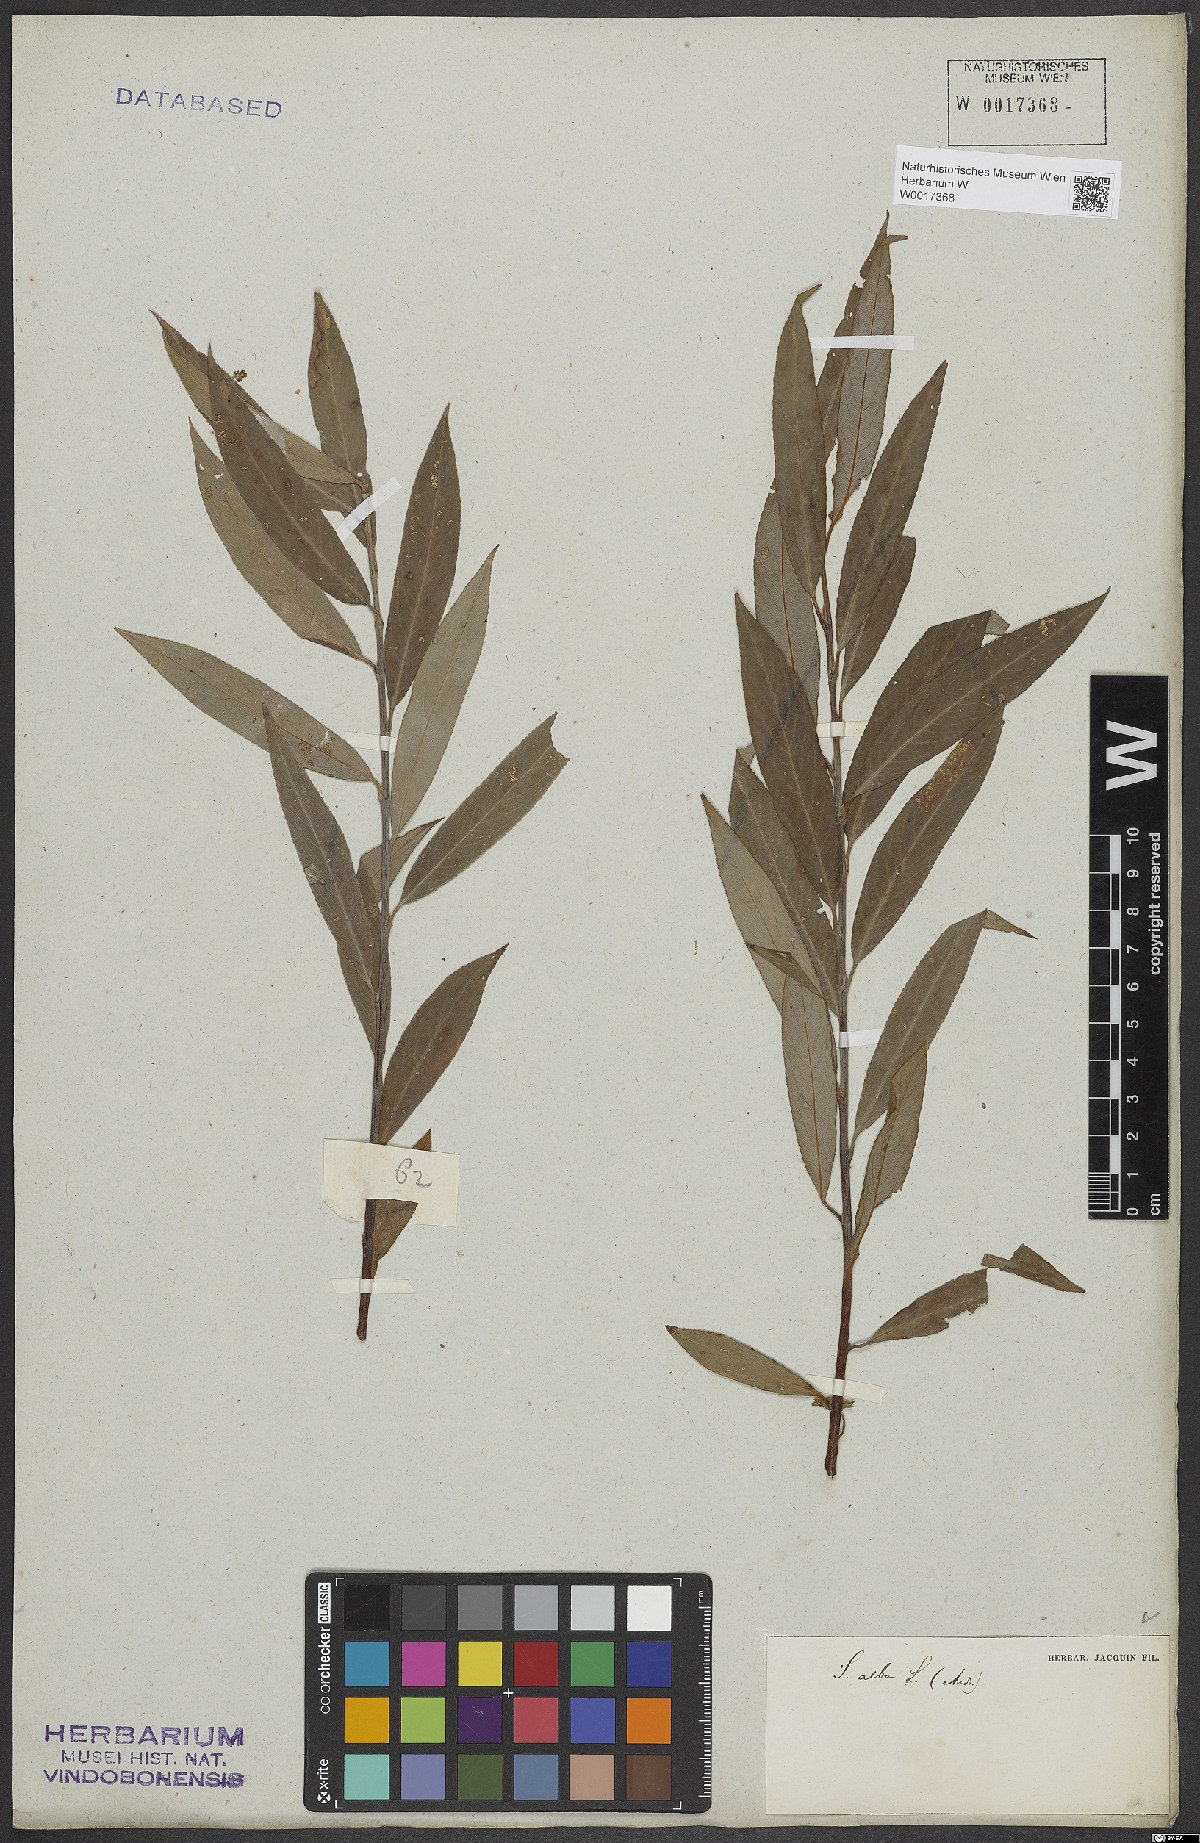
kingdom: Plantae
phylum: Tracheophyta
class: Magnoliopsida
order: Malpighiales
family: Salicaceae
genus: Salix
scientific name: Salix alba
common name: White willow
